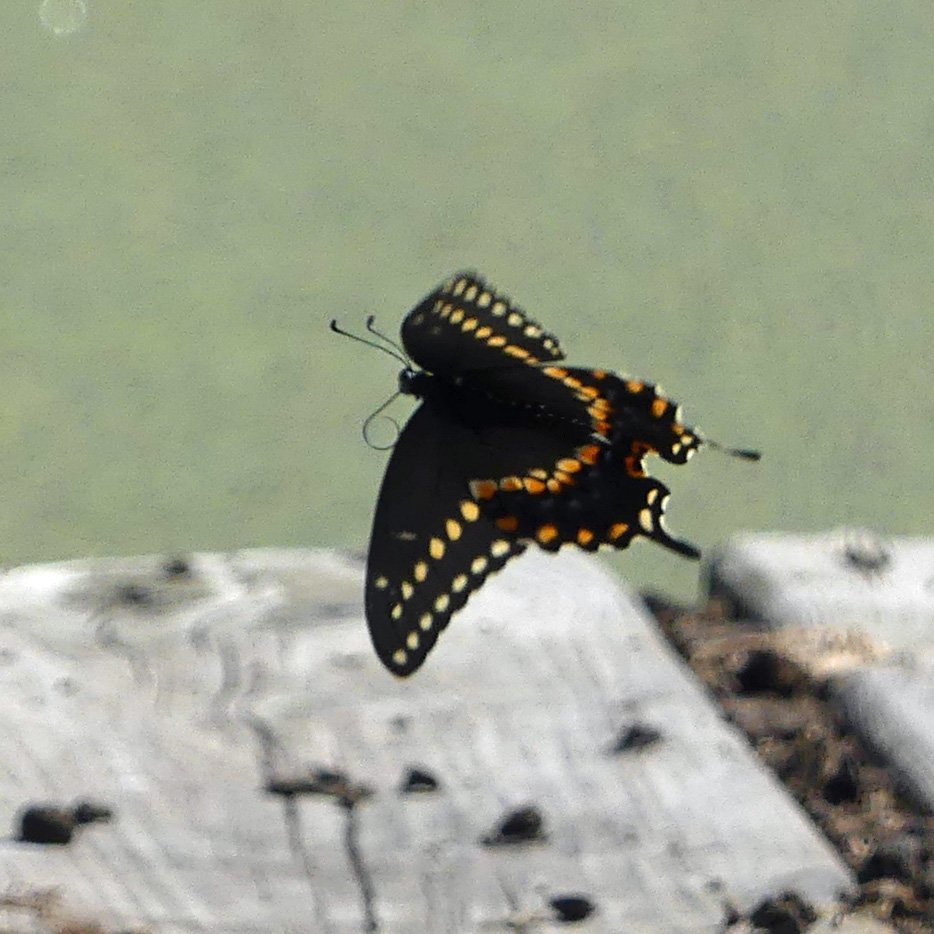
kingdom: Animalia
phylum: Arthropoda
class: Insecta
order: Lepidoptera
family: Papilionidae
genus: Papilio
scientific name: Papilio polyxenes
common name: Black Swallowtail
